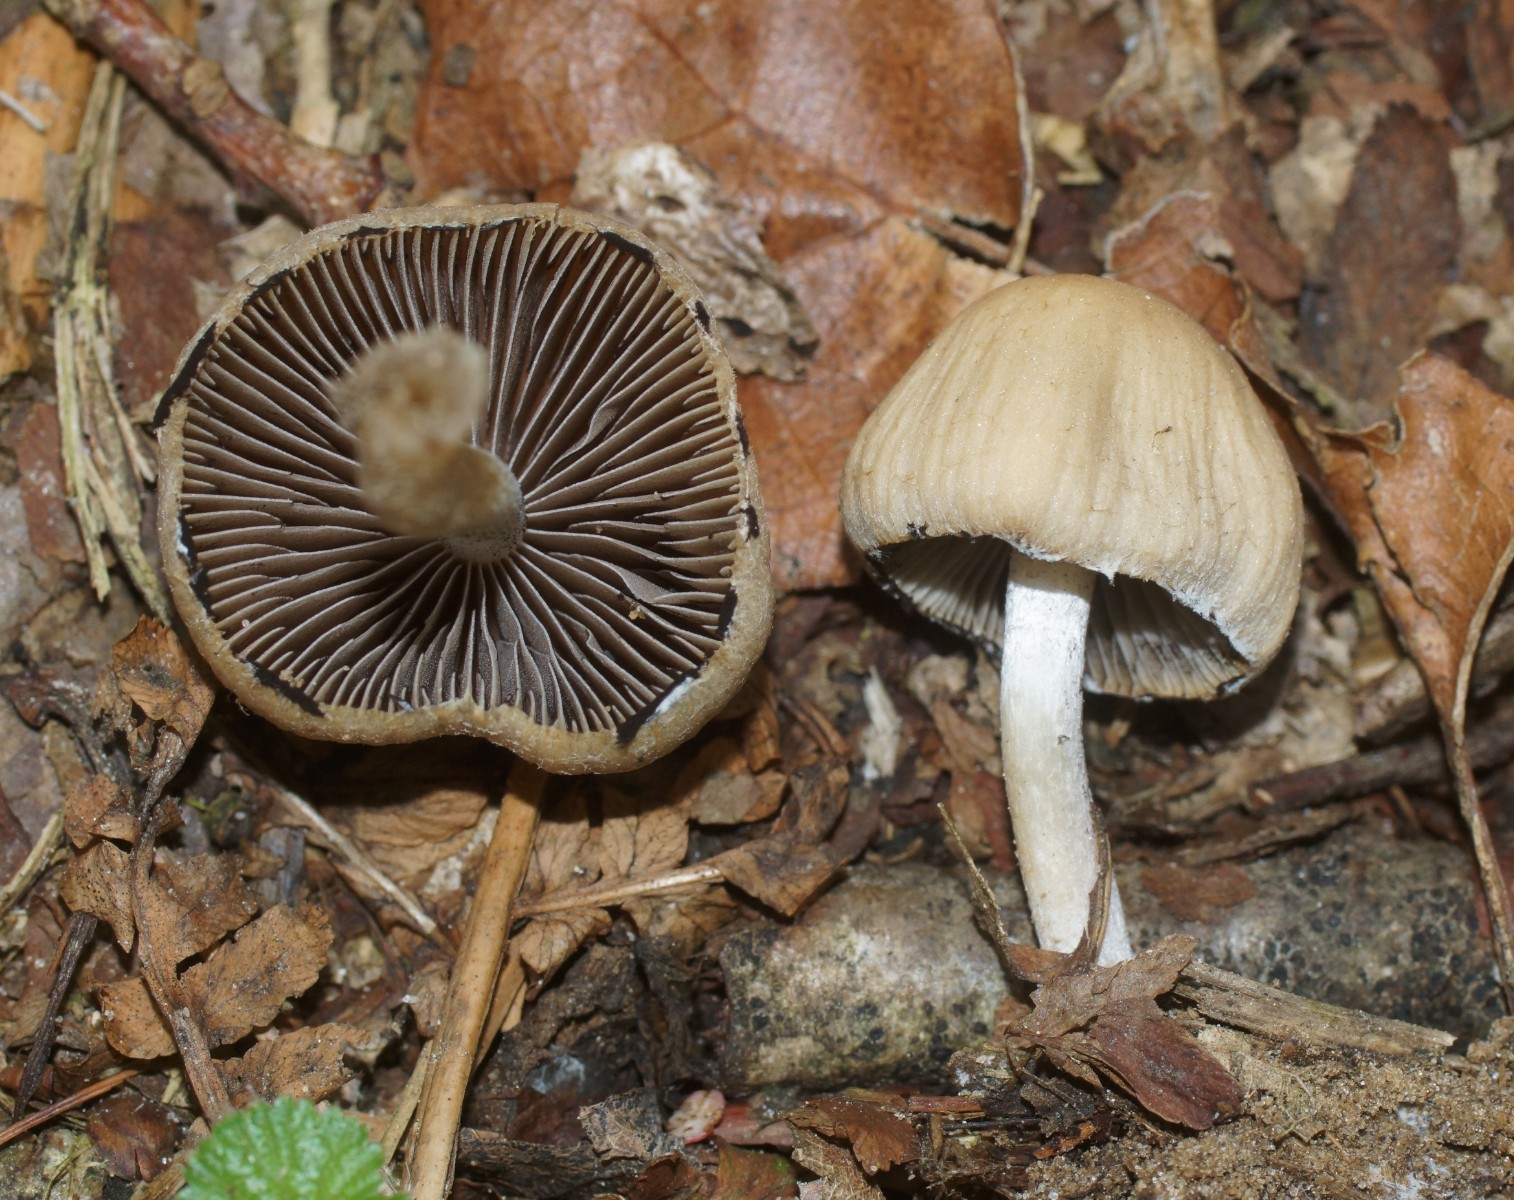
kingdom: Fungi
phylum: Basidiomycota
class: Agaricomycetes
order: Agaricales
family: Psathyrellaceae
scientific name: Psathyrellaceae
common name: mørkhatfamilien
